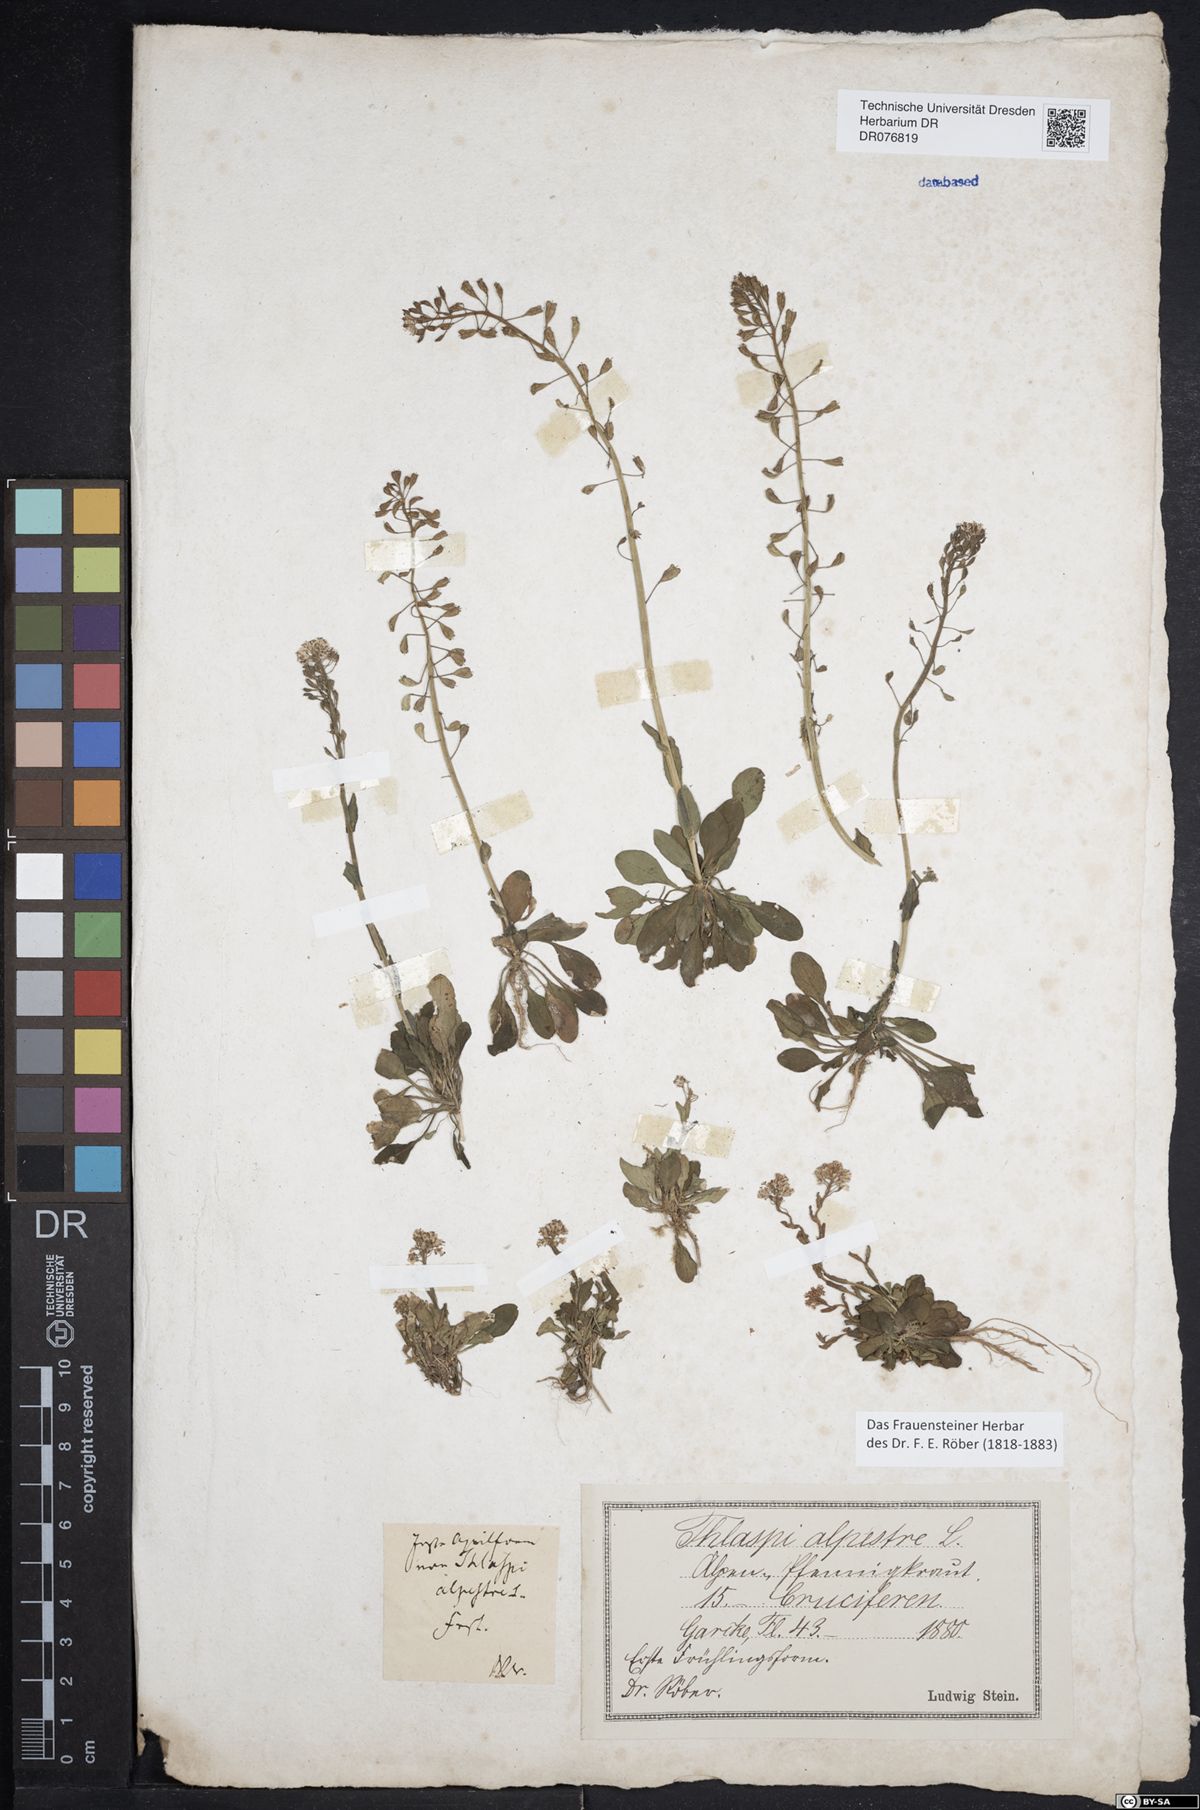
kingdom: Plantae
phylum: Tracheophyta
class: Magnoliopsida
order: Brassicales
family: Brassicaceae
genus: Noccaea
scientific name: Noccaea caerulescens
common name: Alpine pennycress
